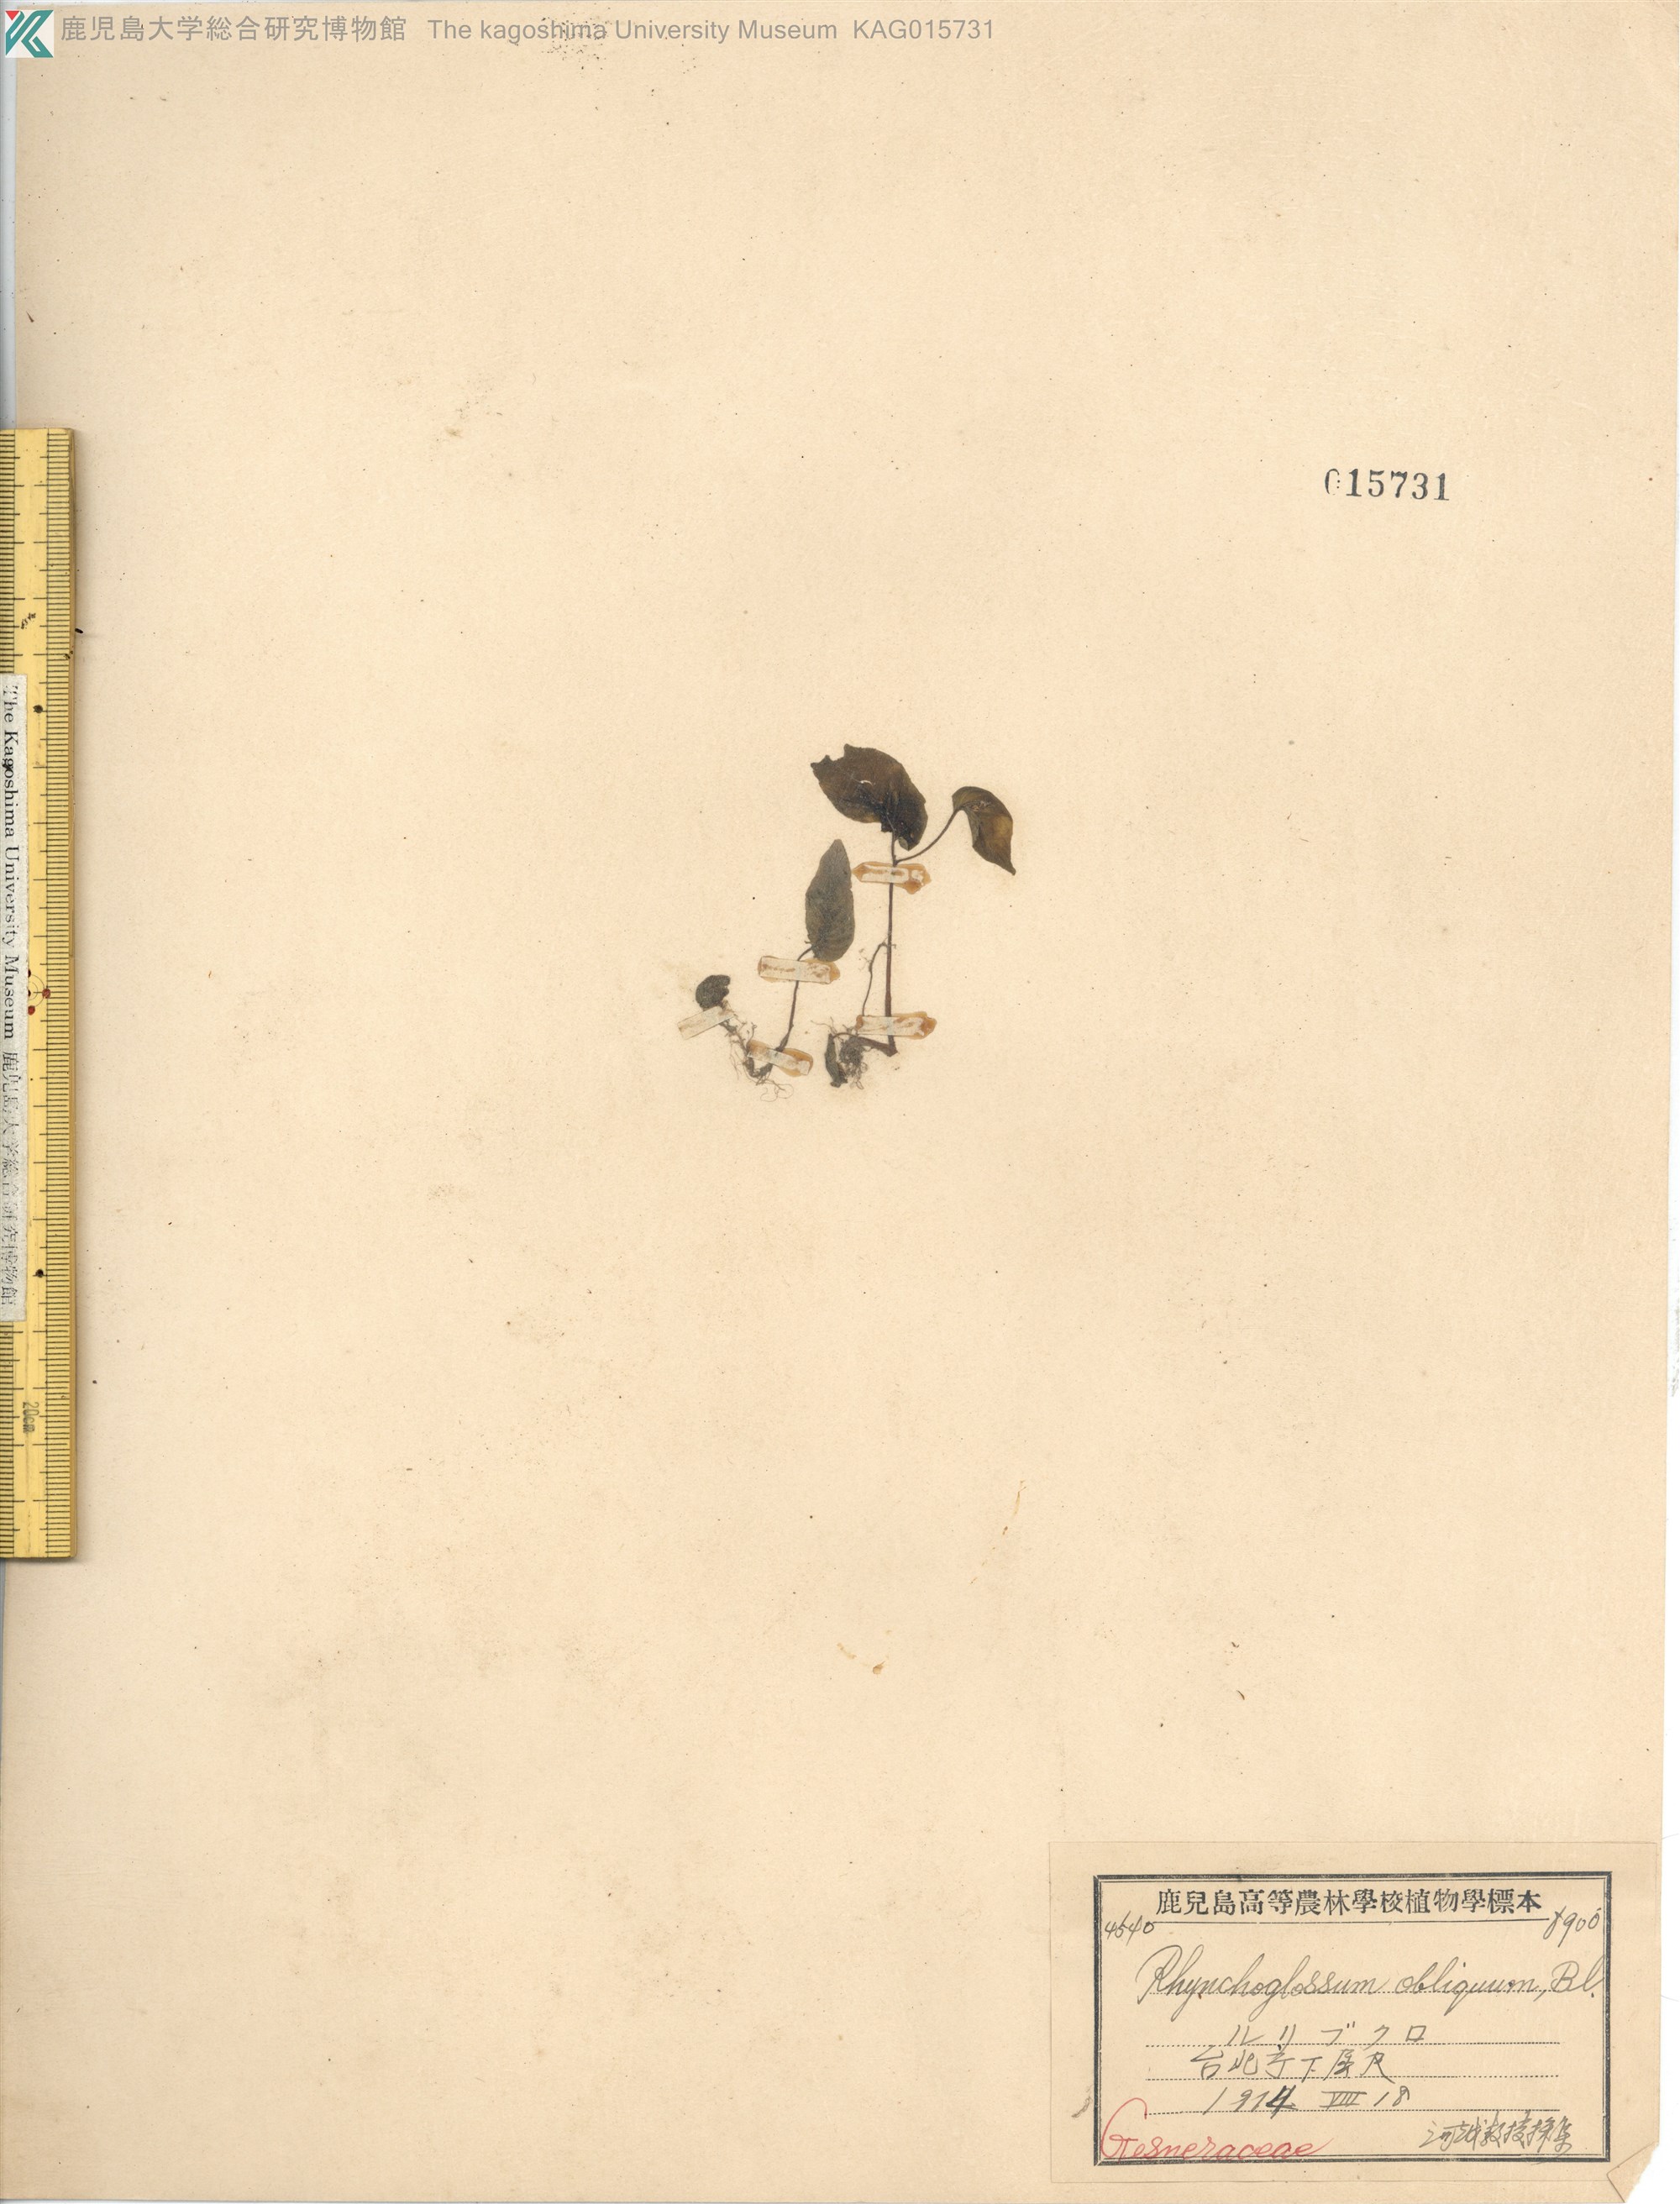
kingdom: Plantae
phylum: Tracheophyta
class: Magnoliopsida
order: Lamiales
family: Gesneriaceae
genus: Rhynchoglossum
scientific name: Rhynchoglossum obliquum
